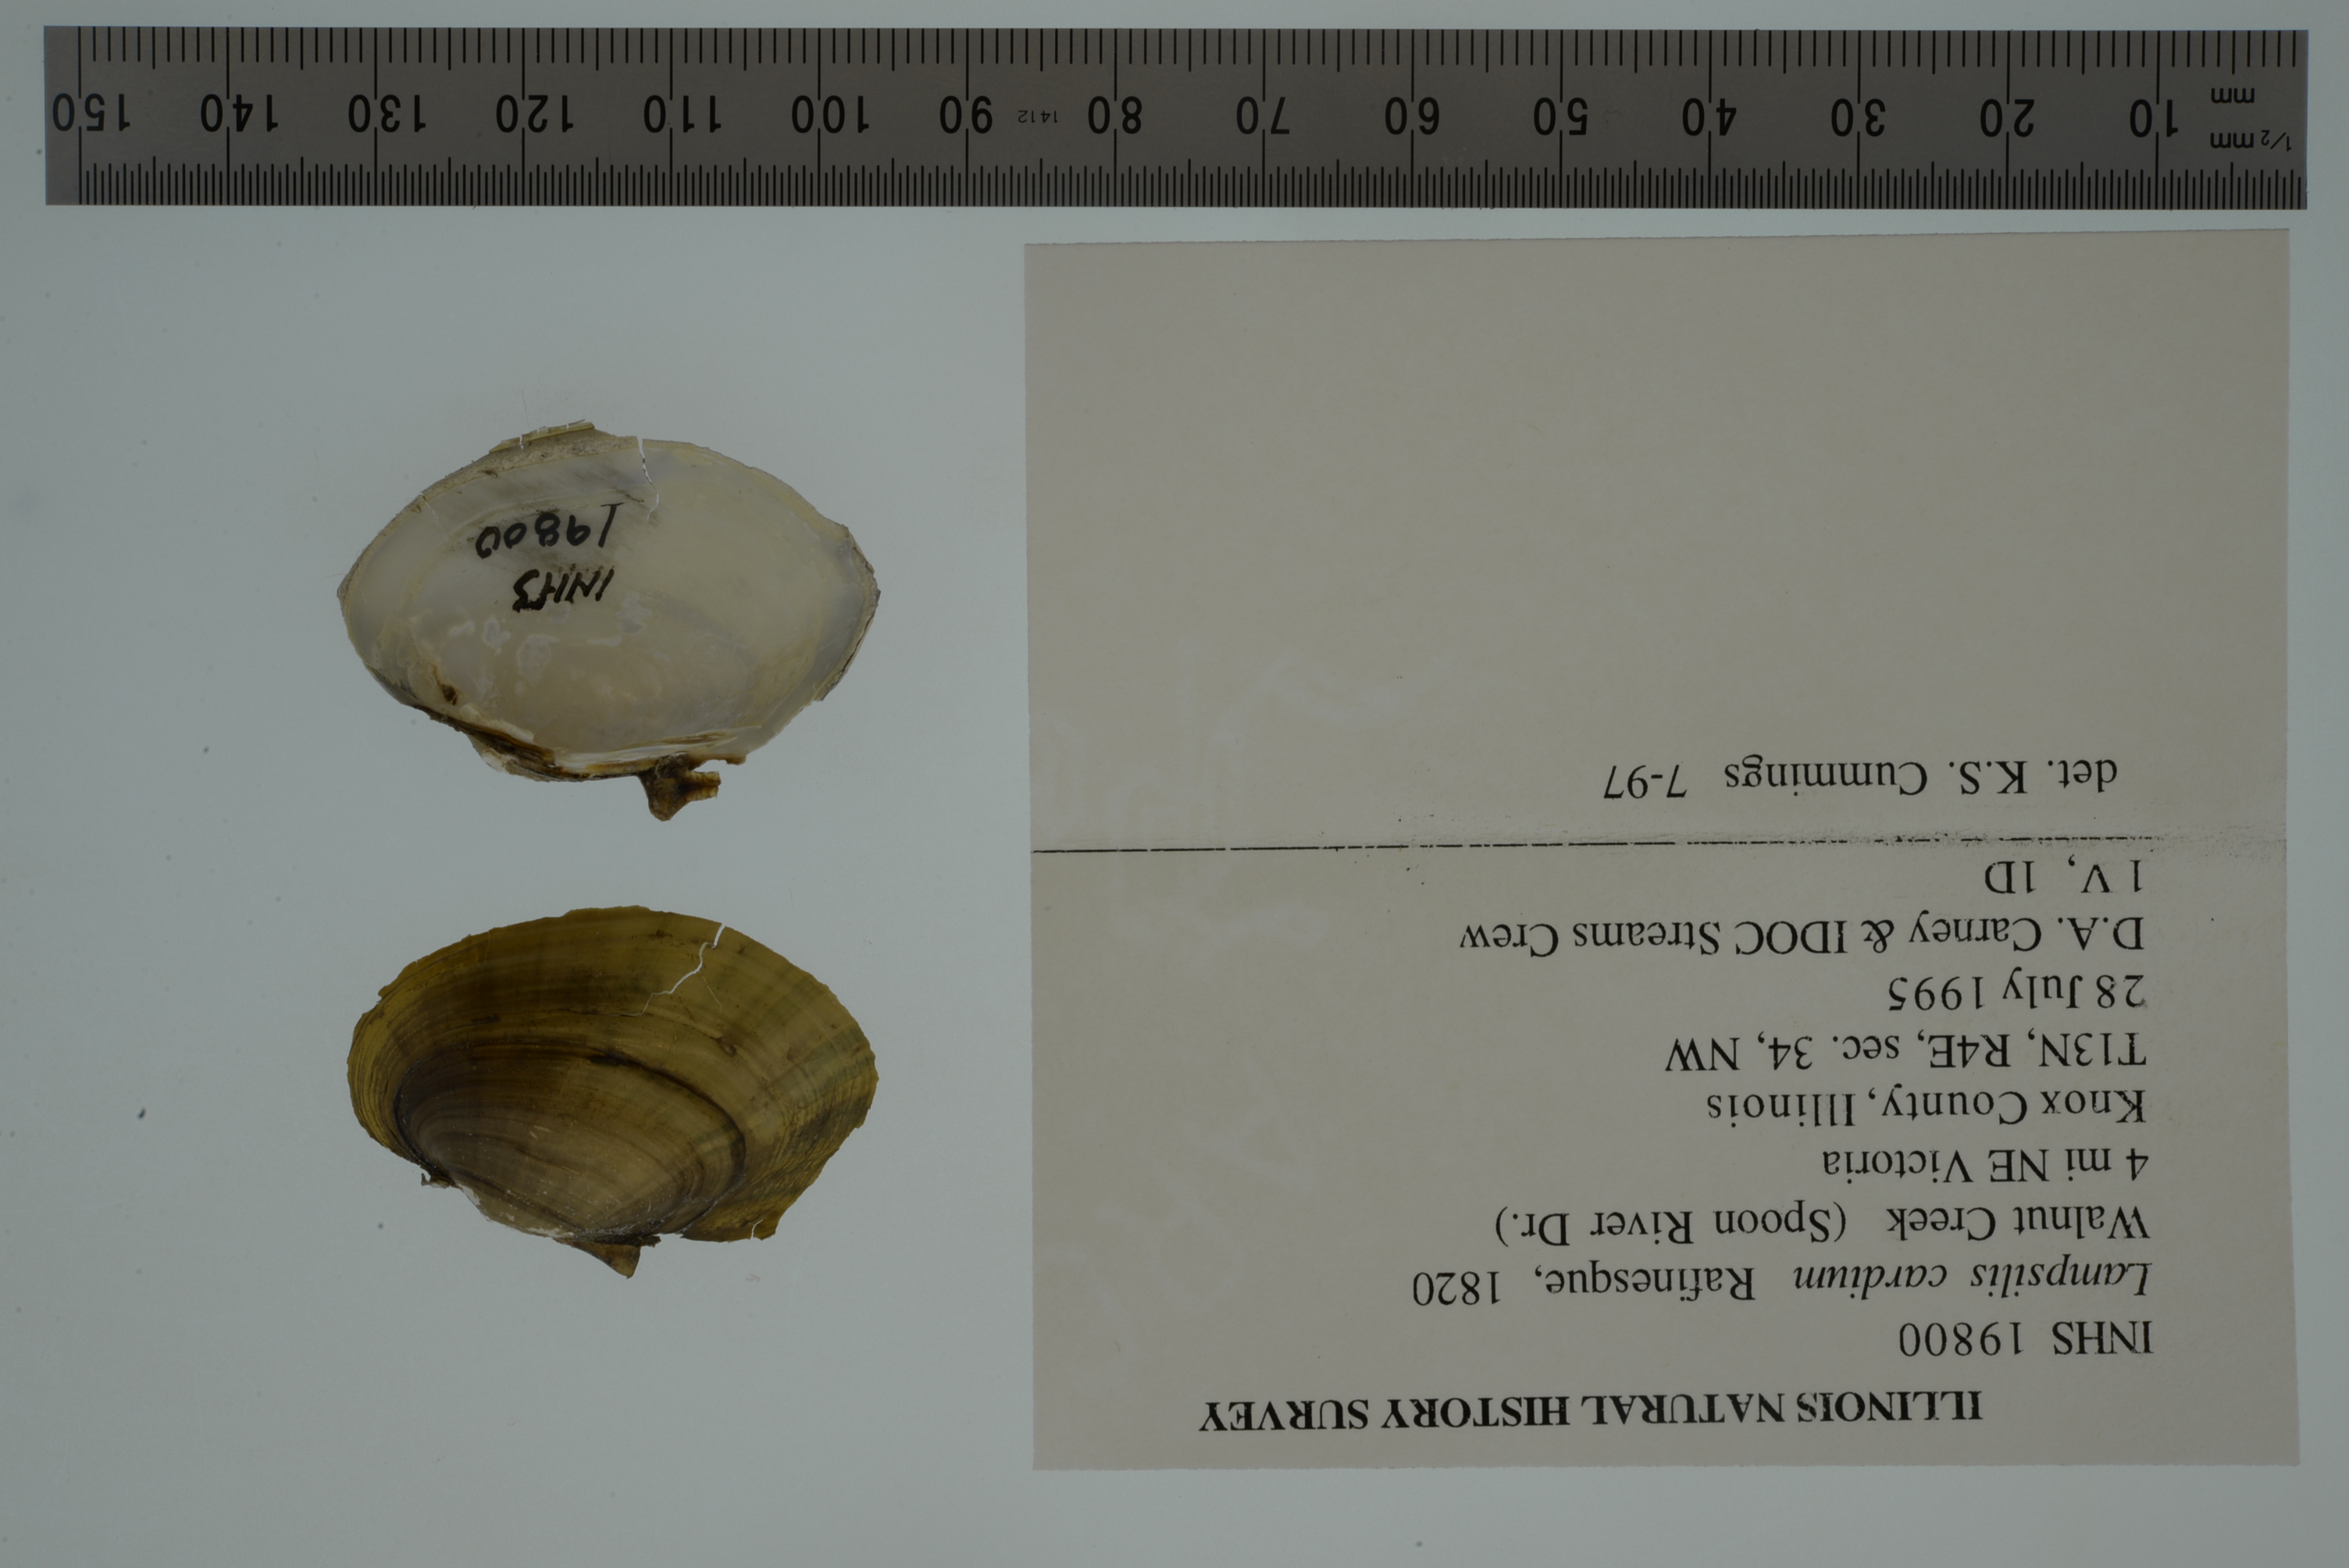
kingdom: Animalia
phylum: Mollusca
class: Bivalvia
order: Unionida
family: Unionidae
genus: Lampsilis
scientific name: Lampsilis cardium
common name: Plain pocketbook
